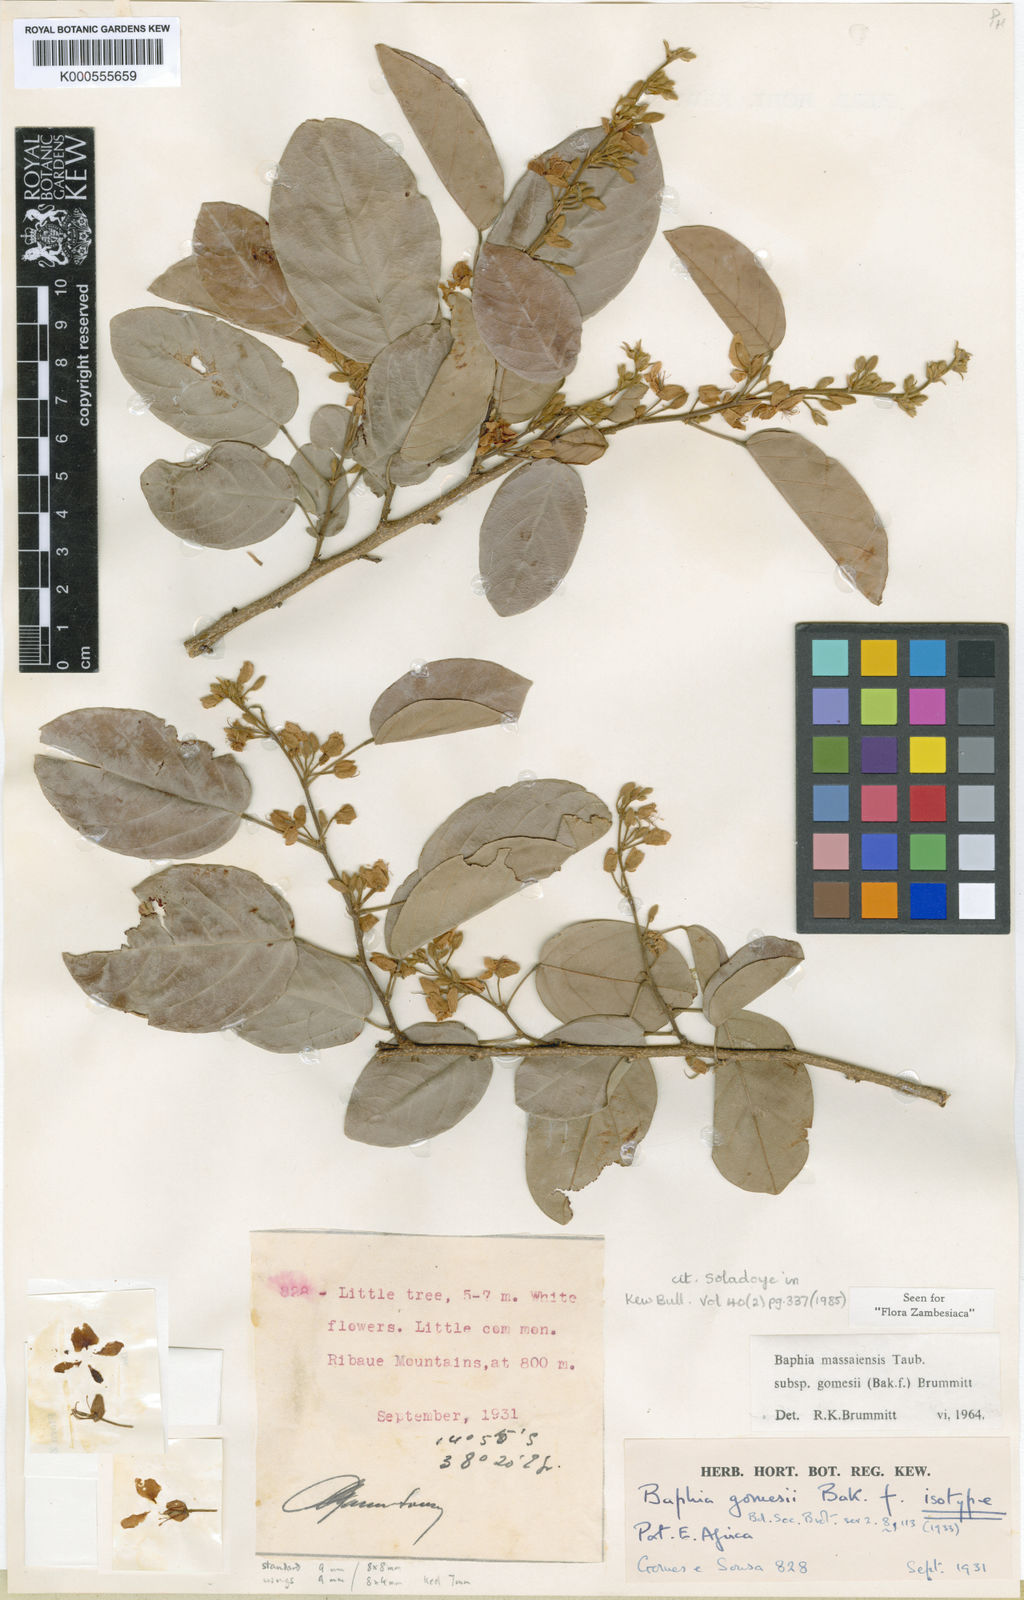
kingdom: Plantae
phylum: Tracheophyta
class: Magnoliopsida
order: Fabales
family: Fabaceae
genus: Baphia
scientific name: Baphia massaiensis
